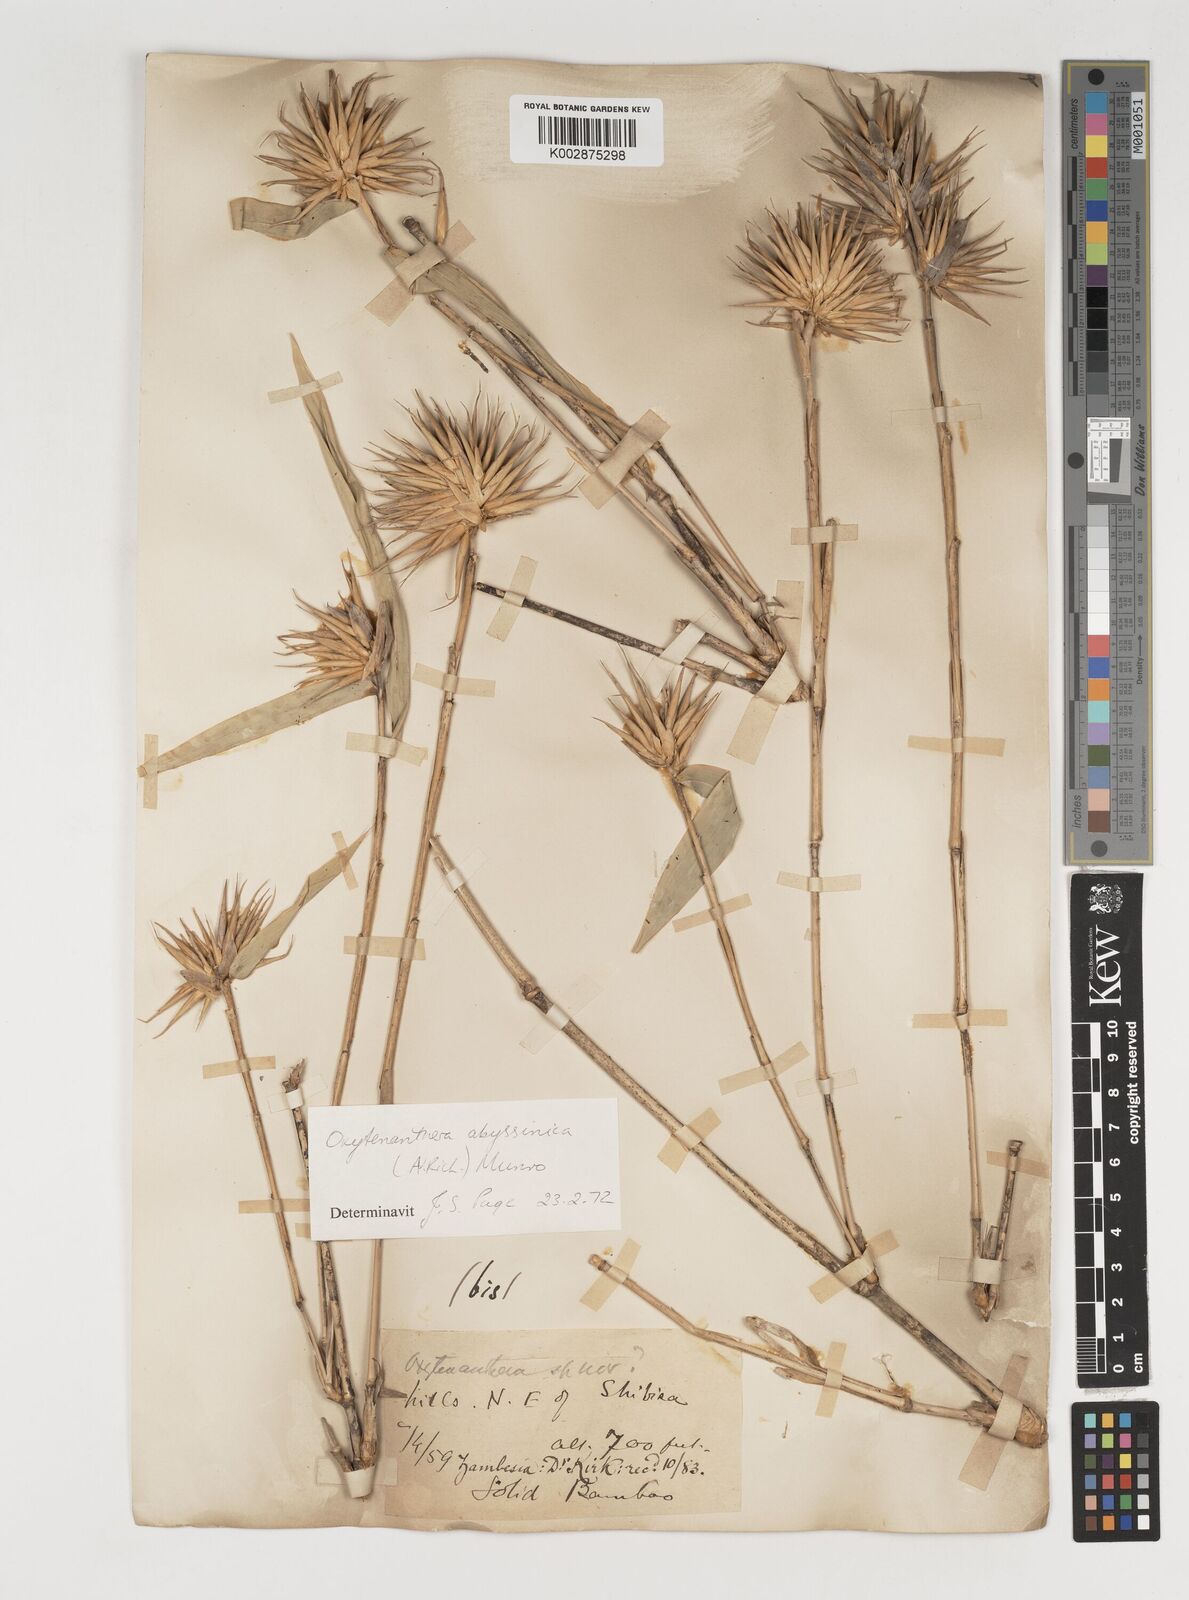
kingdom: Plantae
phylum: Tracheophyta
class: Liliopsida
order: Poales
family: Poaceae
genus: Oxytenanthera
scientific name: Oxytenanthera abyssinica
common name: Wine bamboo
